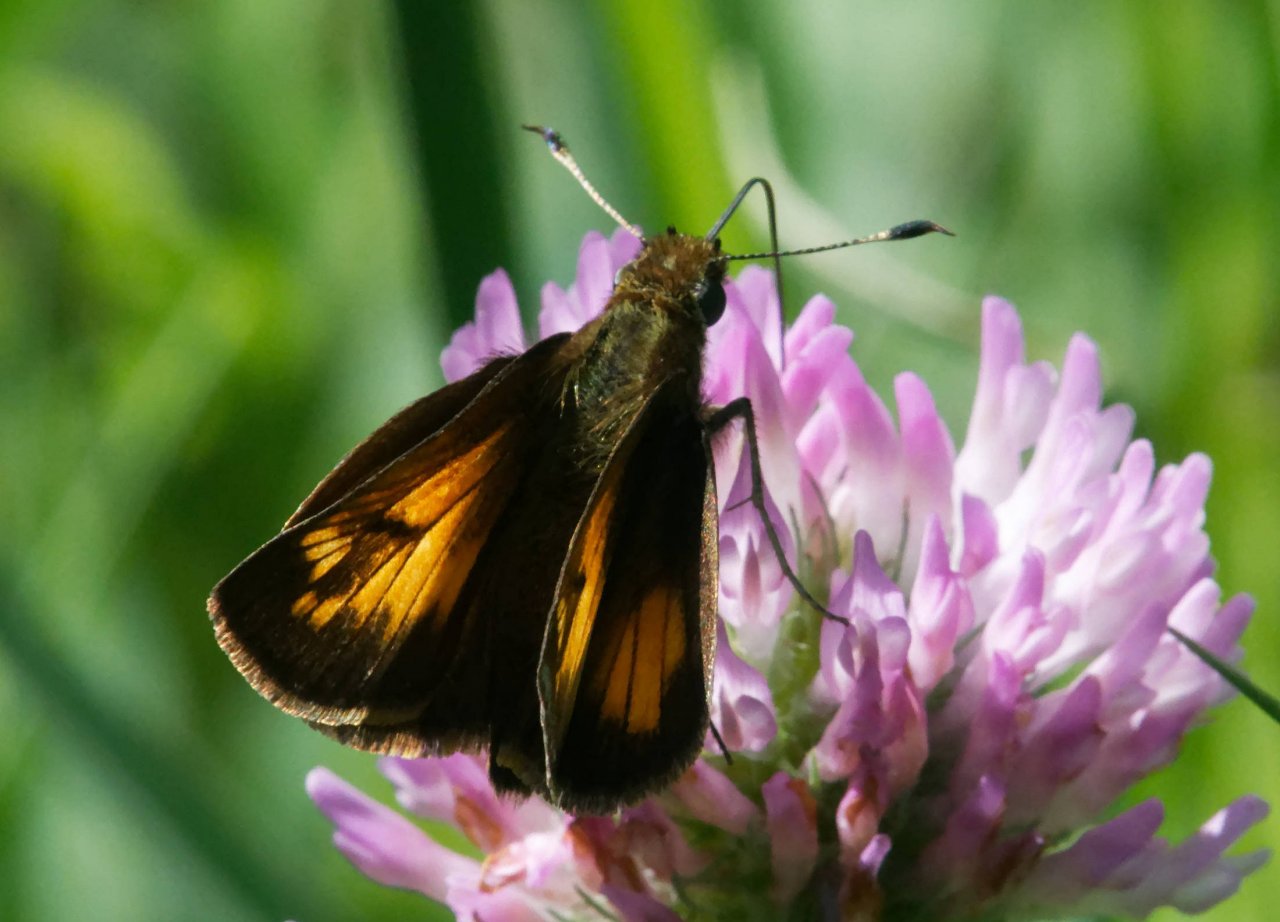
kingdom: Animalia
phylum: Arthropoda
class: Insecta
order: Lepidoptera
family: Hesperiidae
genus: Lon
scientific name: Lon hobomok
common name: Hobomok Skipper
